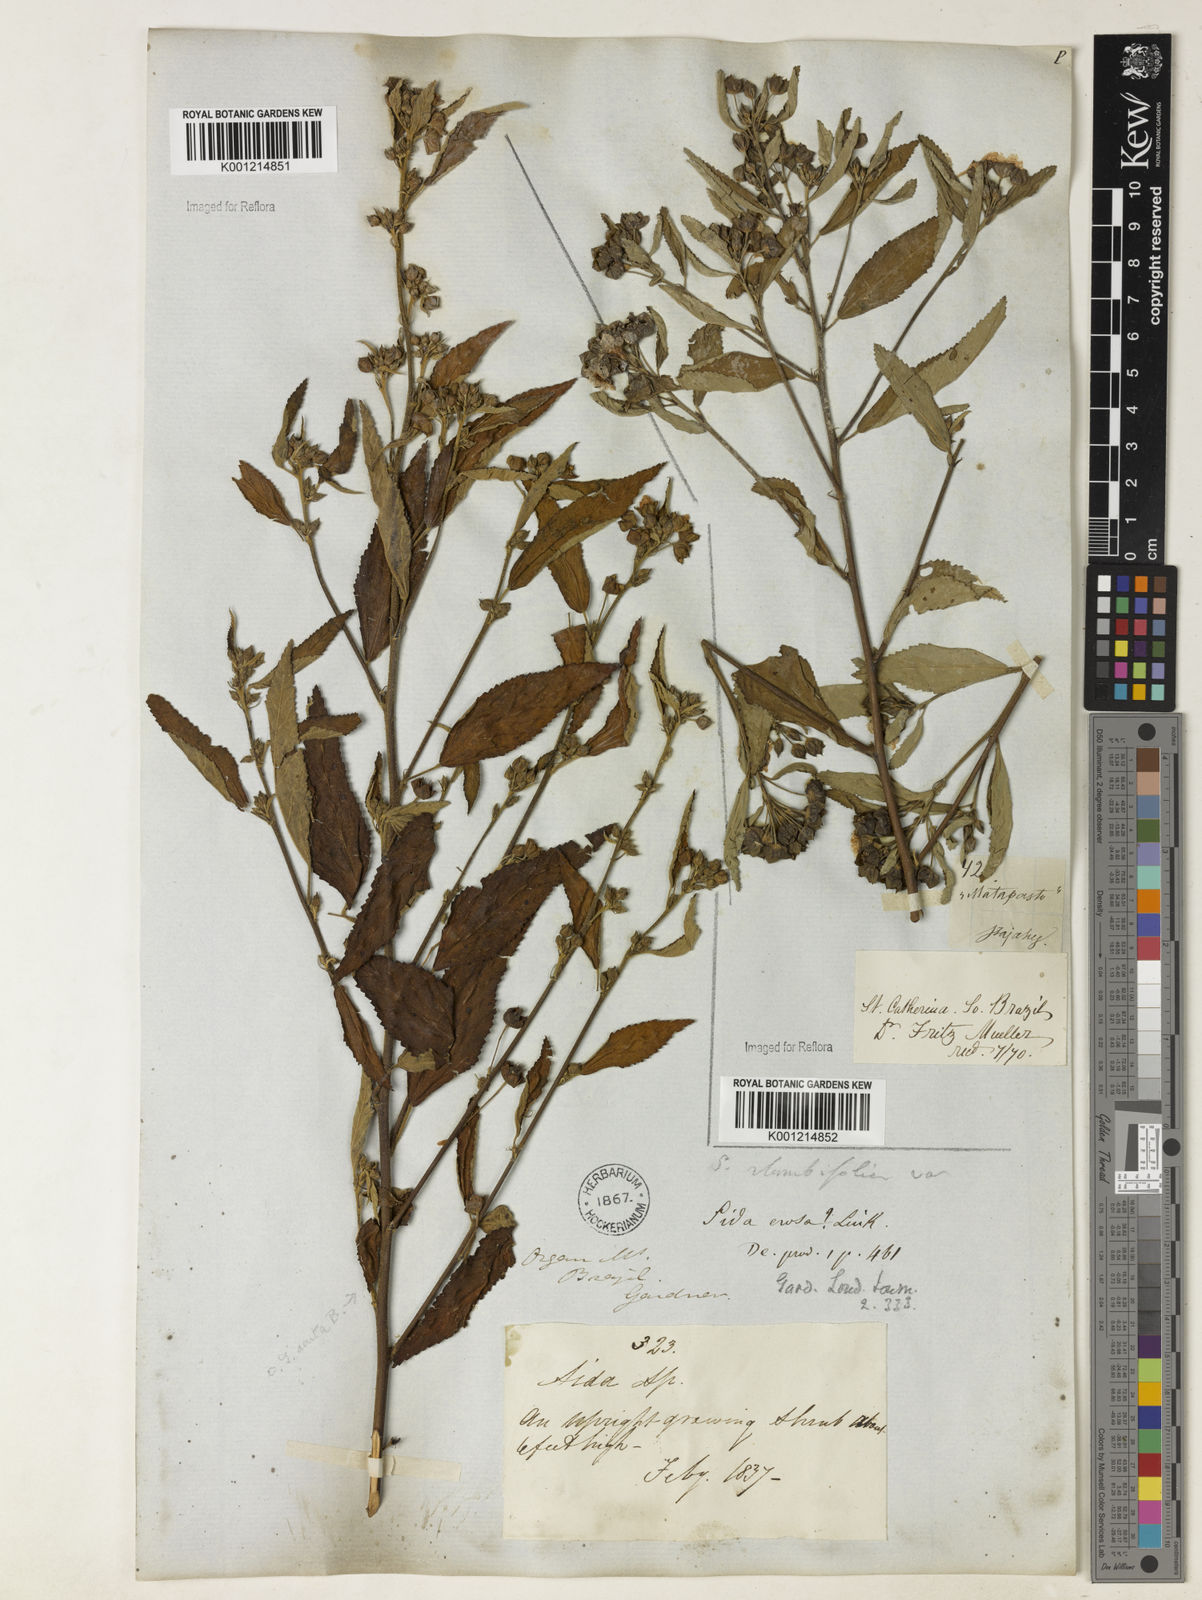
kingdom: Plantae
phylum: Tracheophyta
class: Magnoliopsida
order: Malvales
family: Malvaceae
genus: Sida
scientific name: Sida rhombifolia
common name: Queensland-hemp
